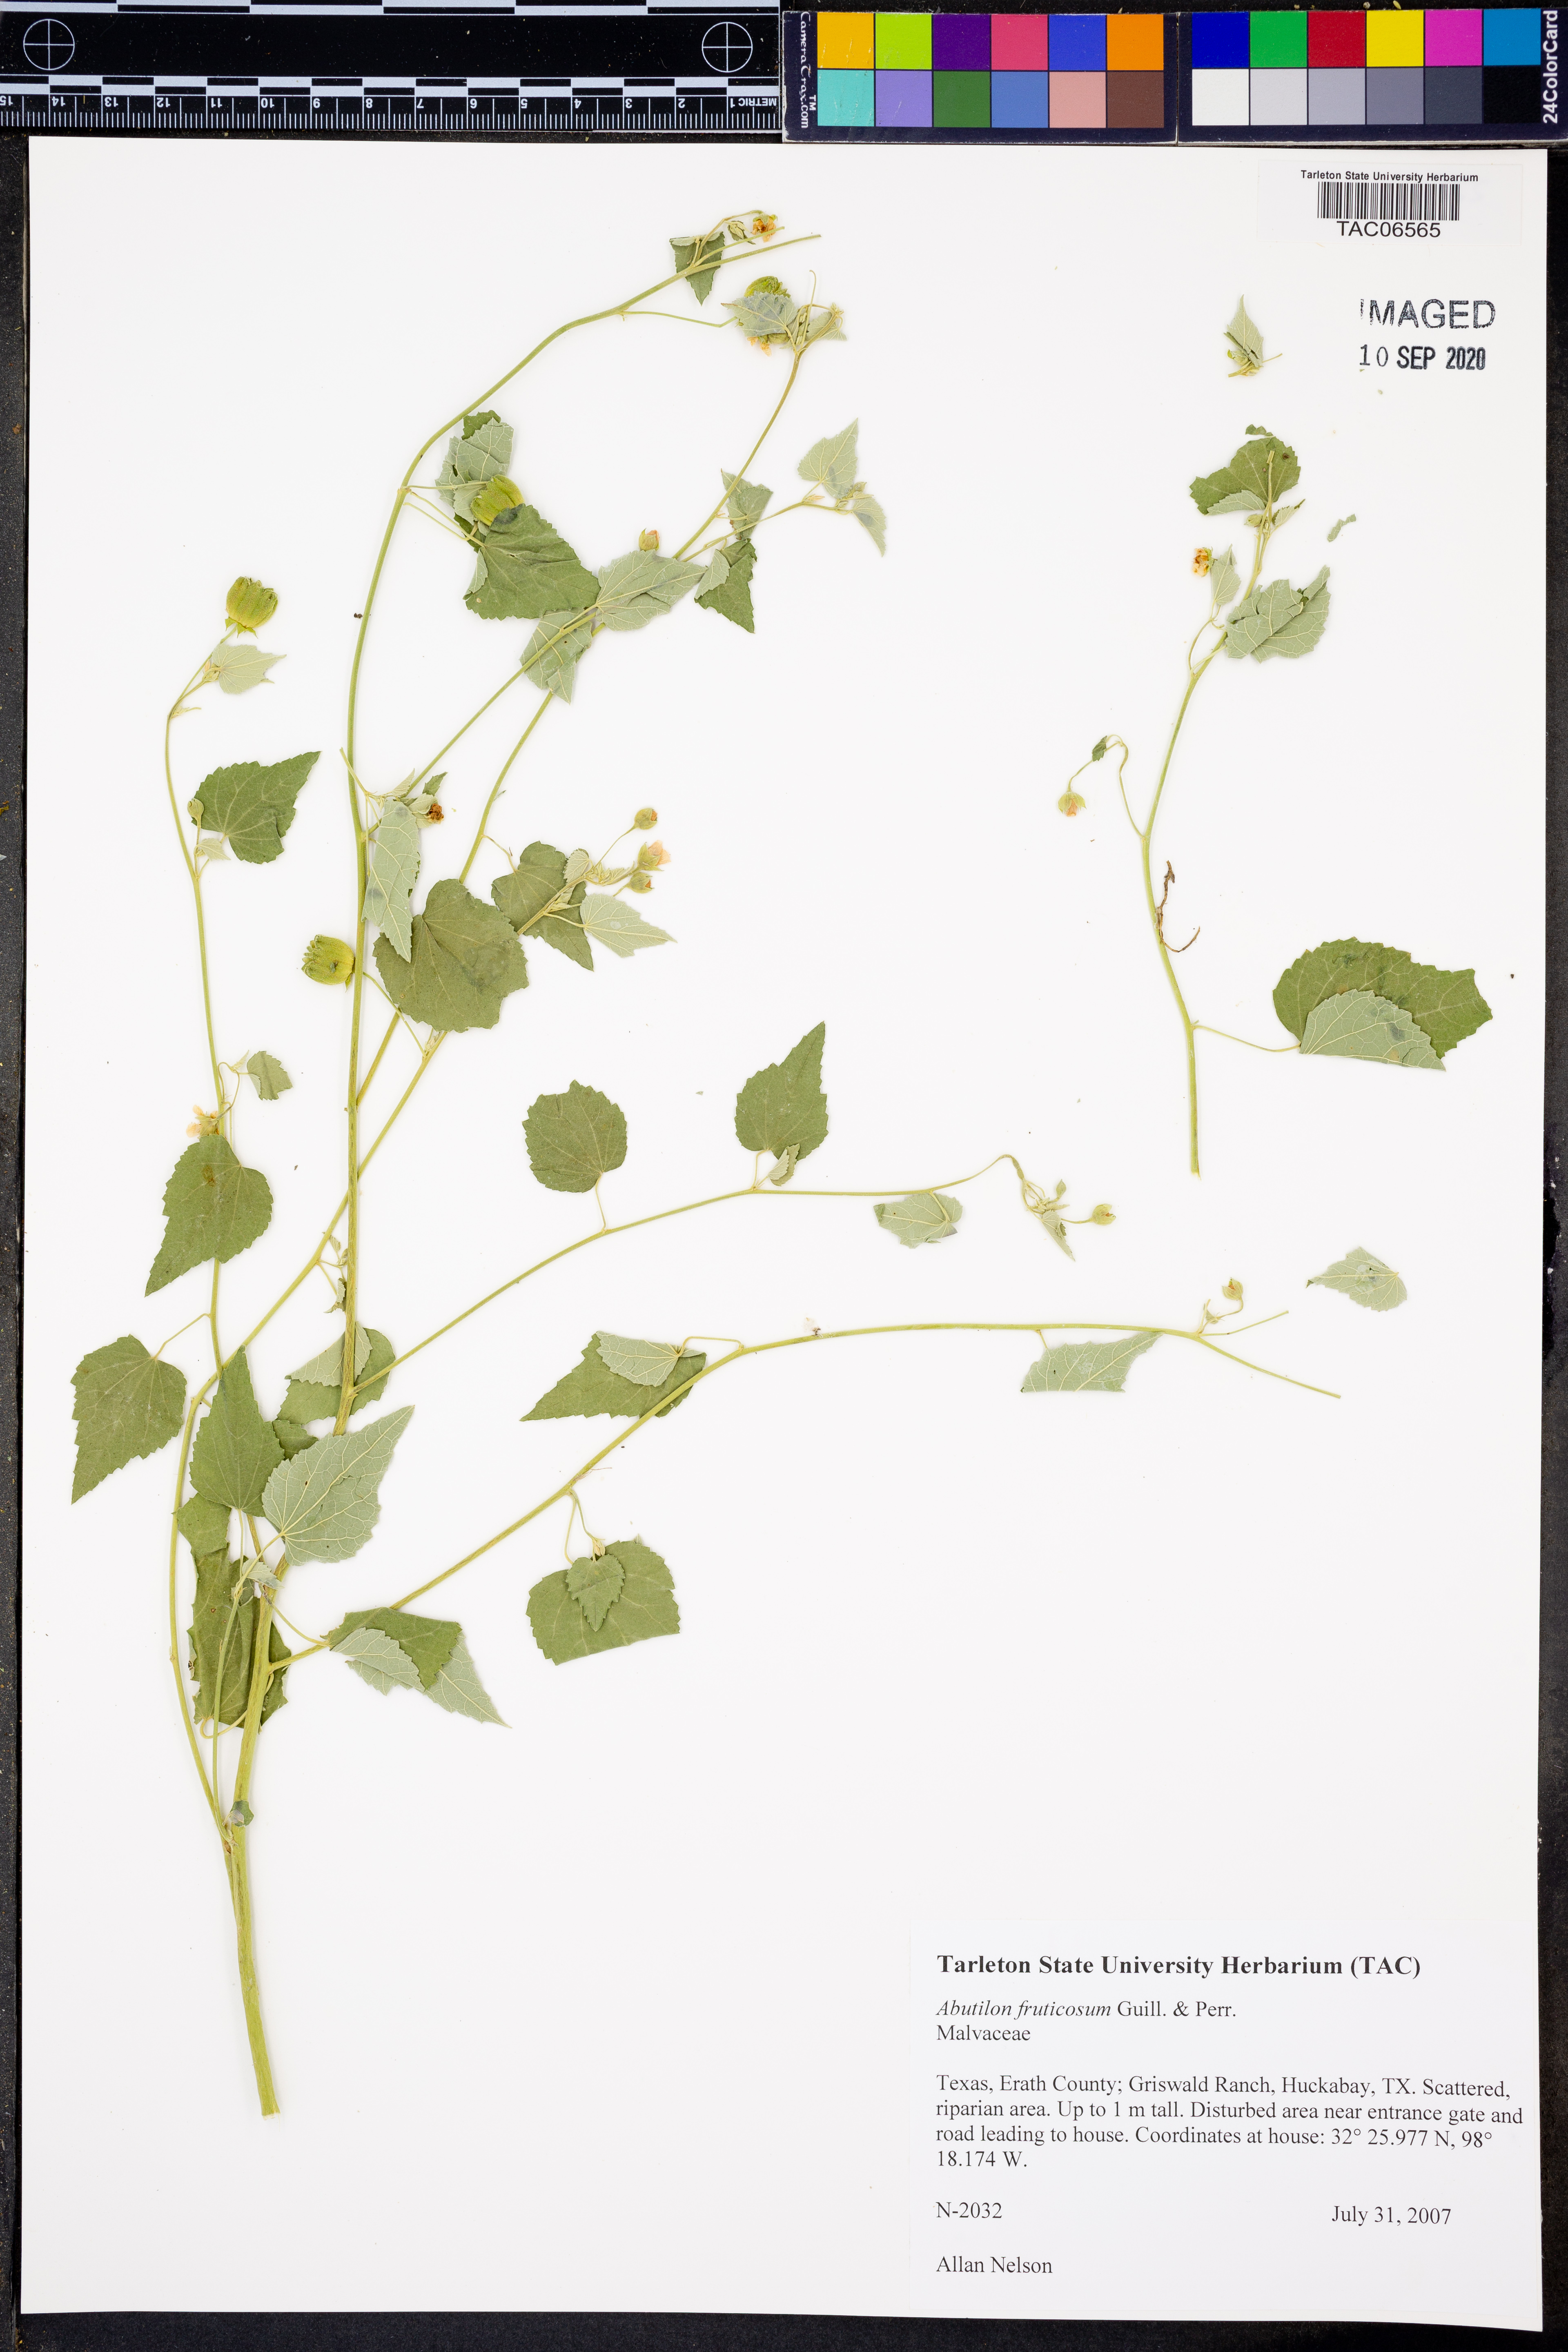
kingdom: Plantae
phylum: Tracheophyta
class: Magnoliopsida
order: Malvales
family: Malvaceae
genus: Abutilon
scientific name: Abutilon fruticosum
